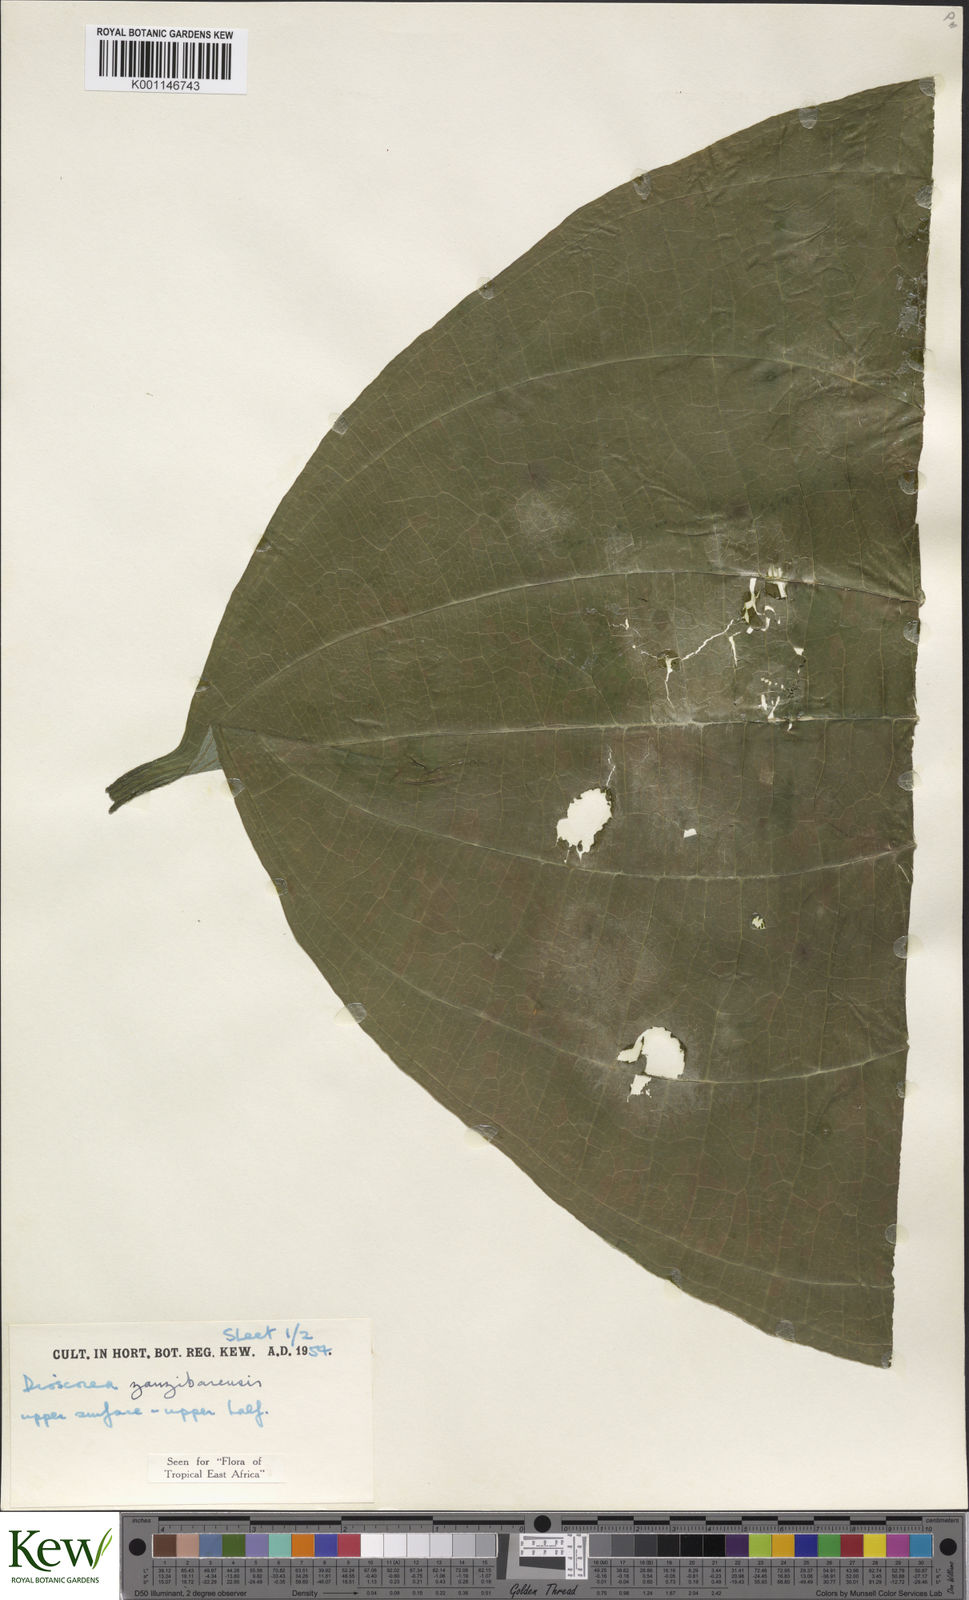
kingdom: Plantae
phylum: Tracheophyta
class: Liliopsida
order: Dioscoreales
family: Dioscoreaceae
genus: Dioscorea
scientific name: Dioscorea sansibarensis
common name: Zanzibar yam
